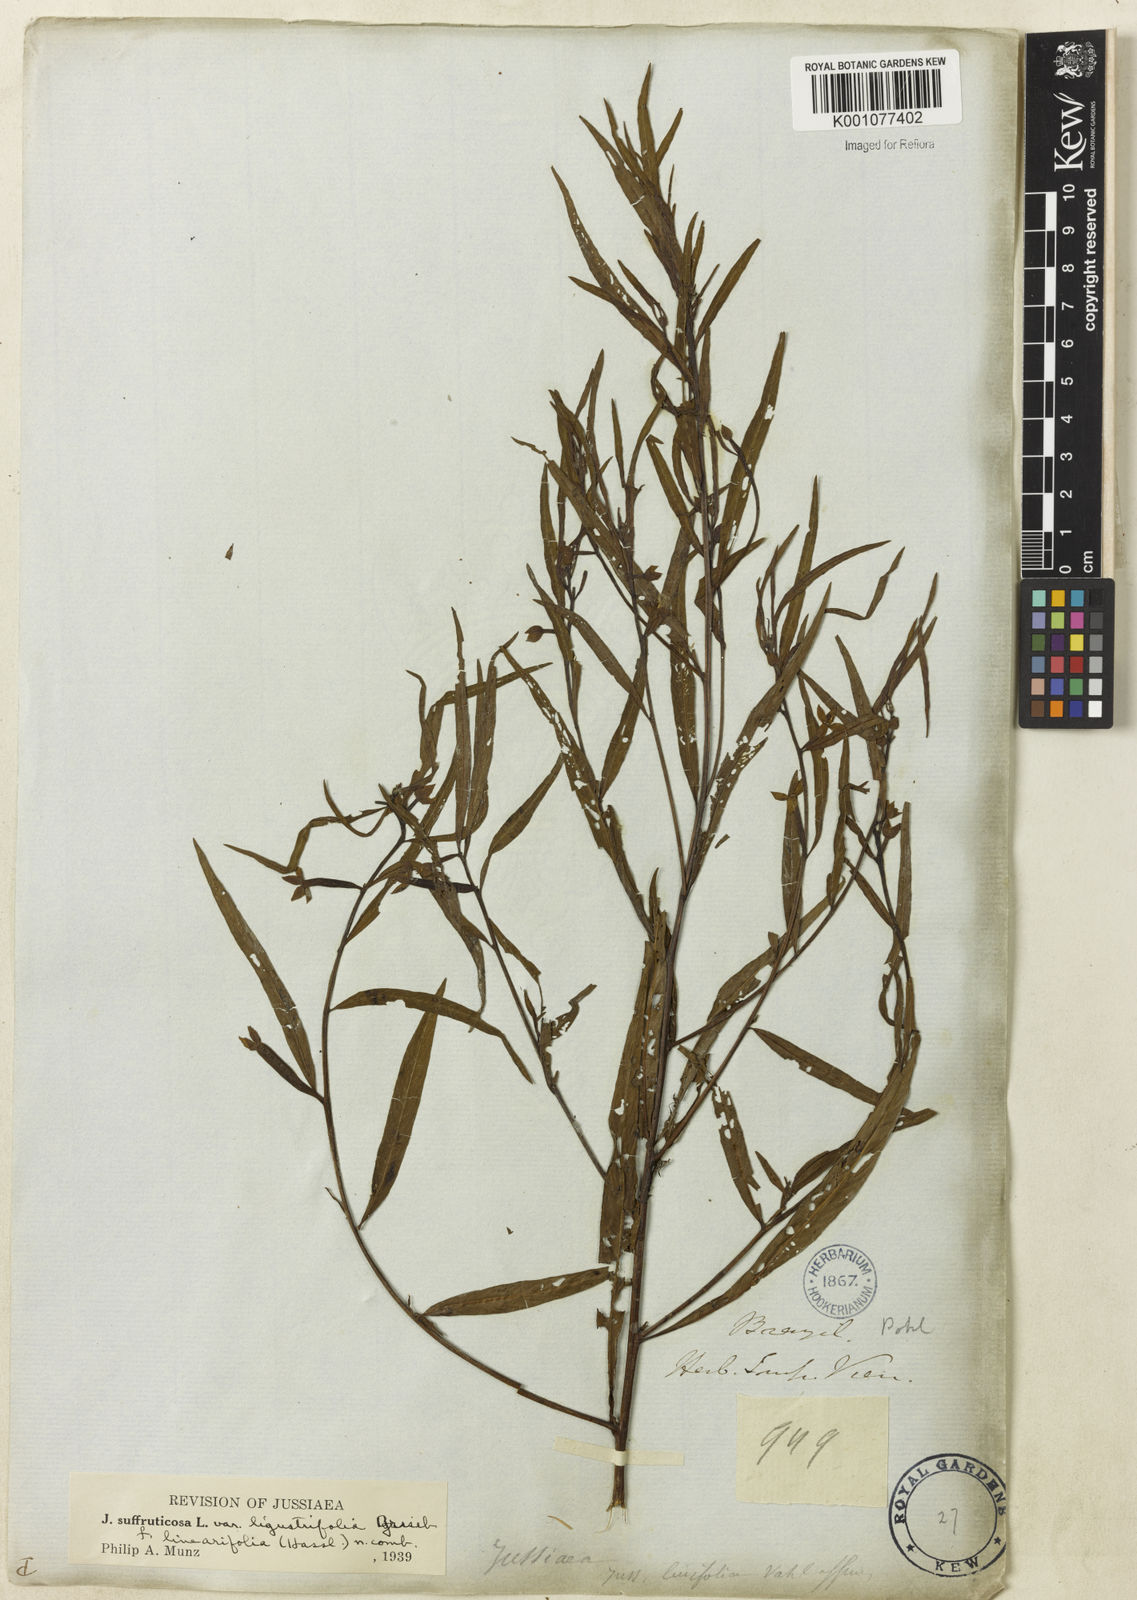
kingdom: Plantae
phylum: Tracheophyta
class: Magnoliopsida
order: Myrtales
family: Onagraceae
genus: Ludwigia
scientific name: Ludwigia octovalvis
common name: Water-primrose
